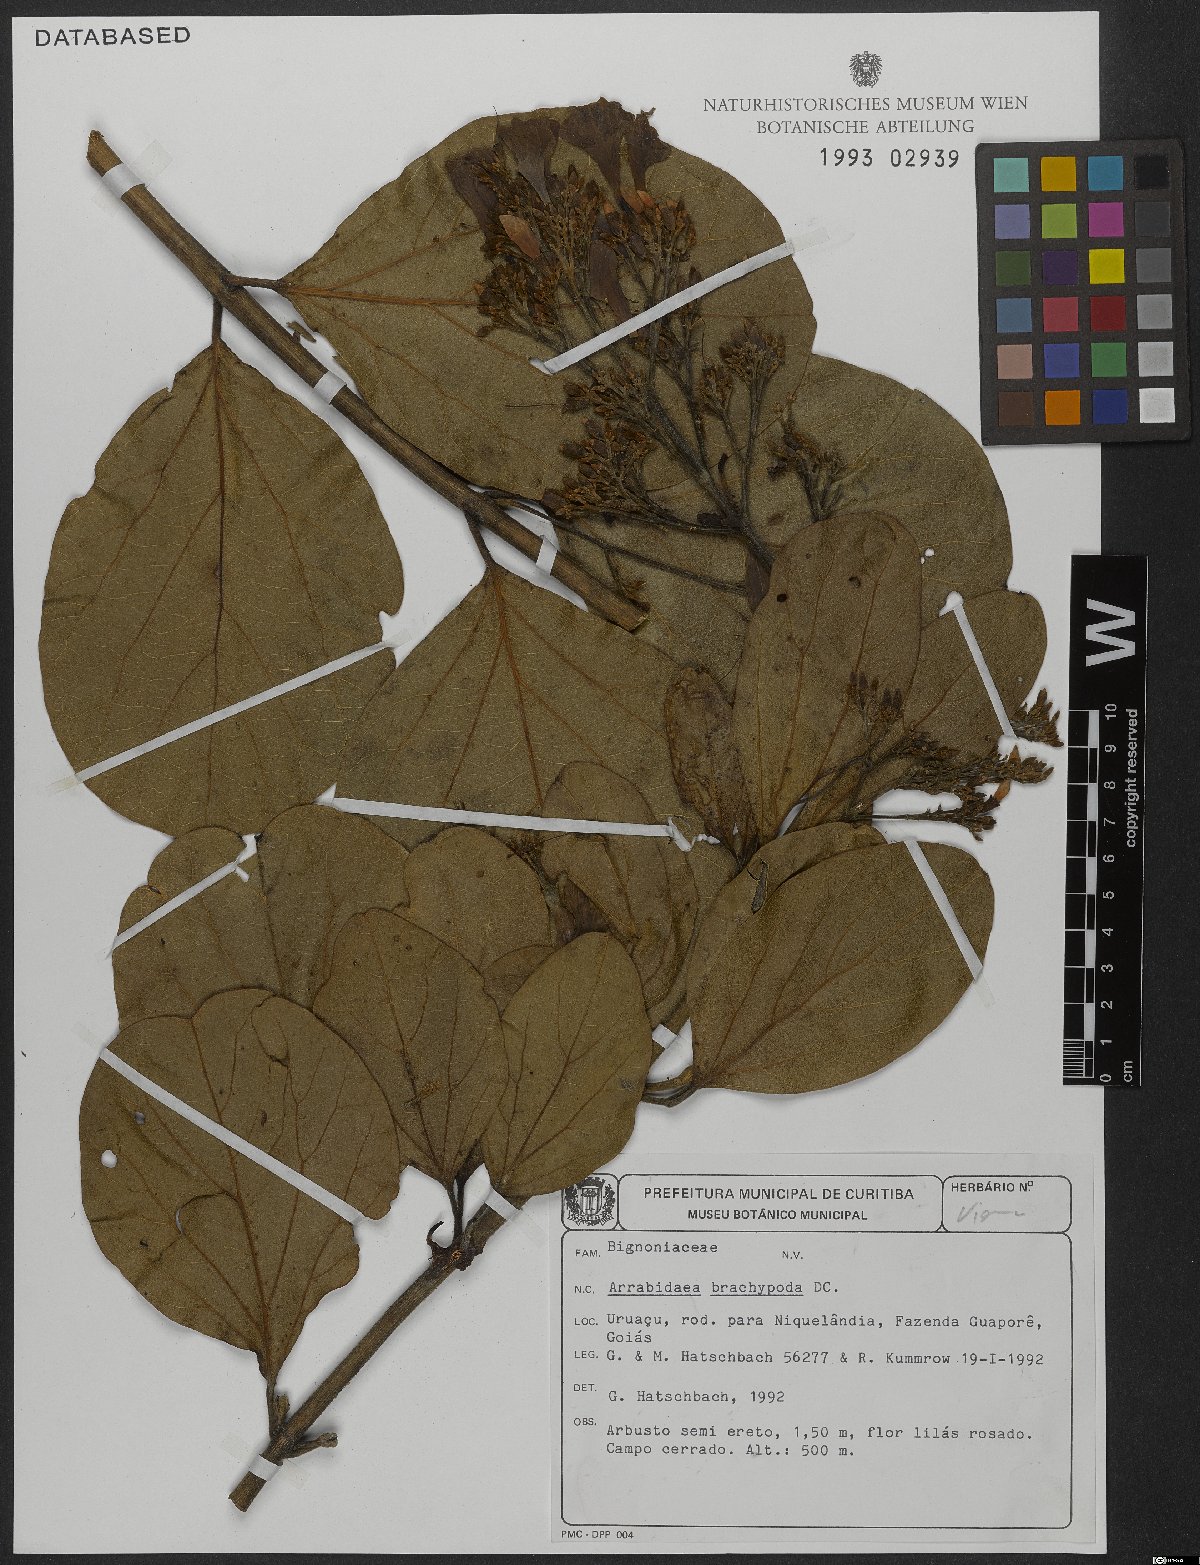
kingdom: Plantae
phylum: Tracheophyta
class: Magnoliopsida
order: Lamiales
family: Bignoniaceae
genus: Fridericia
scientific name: Fridericia platyphylla
